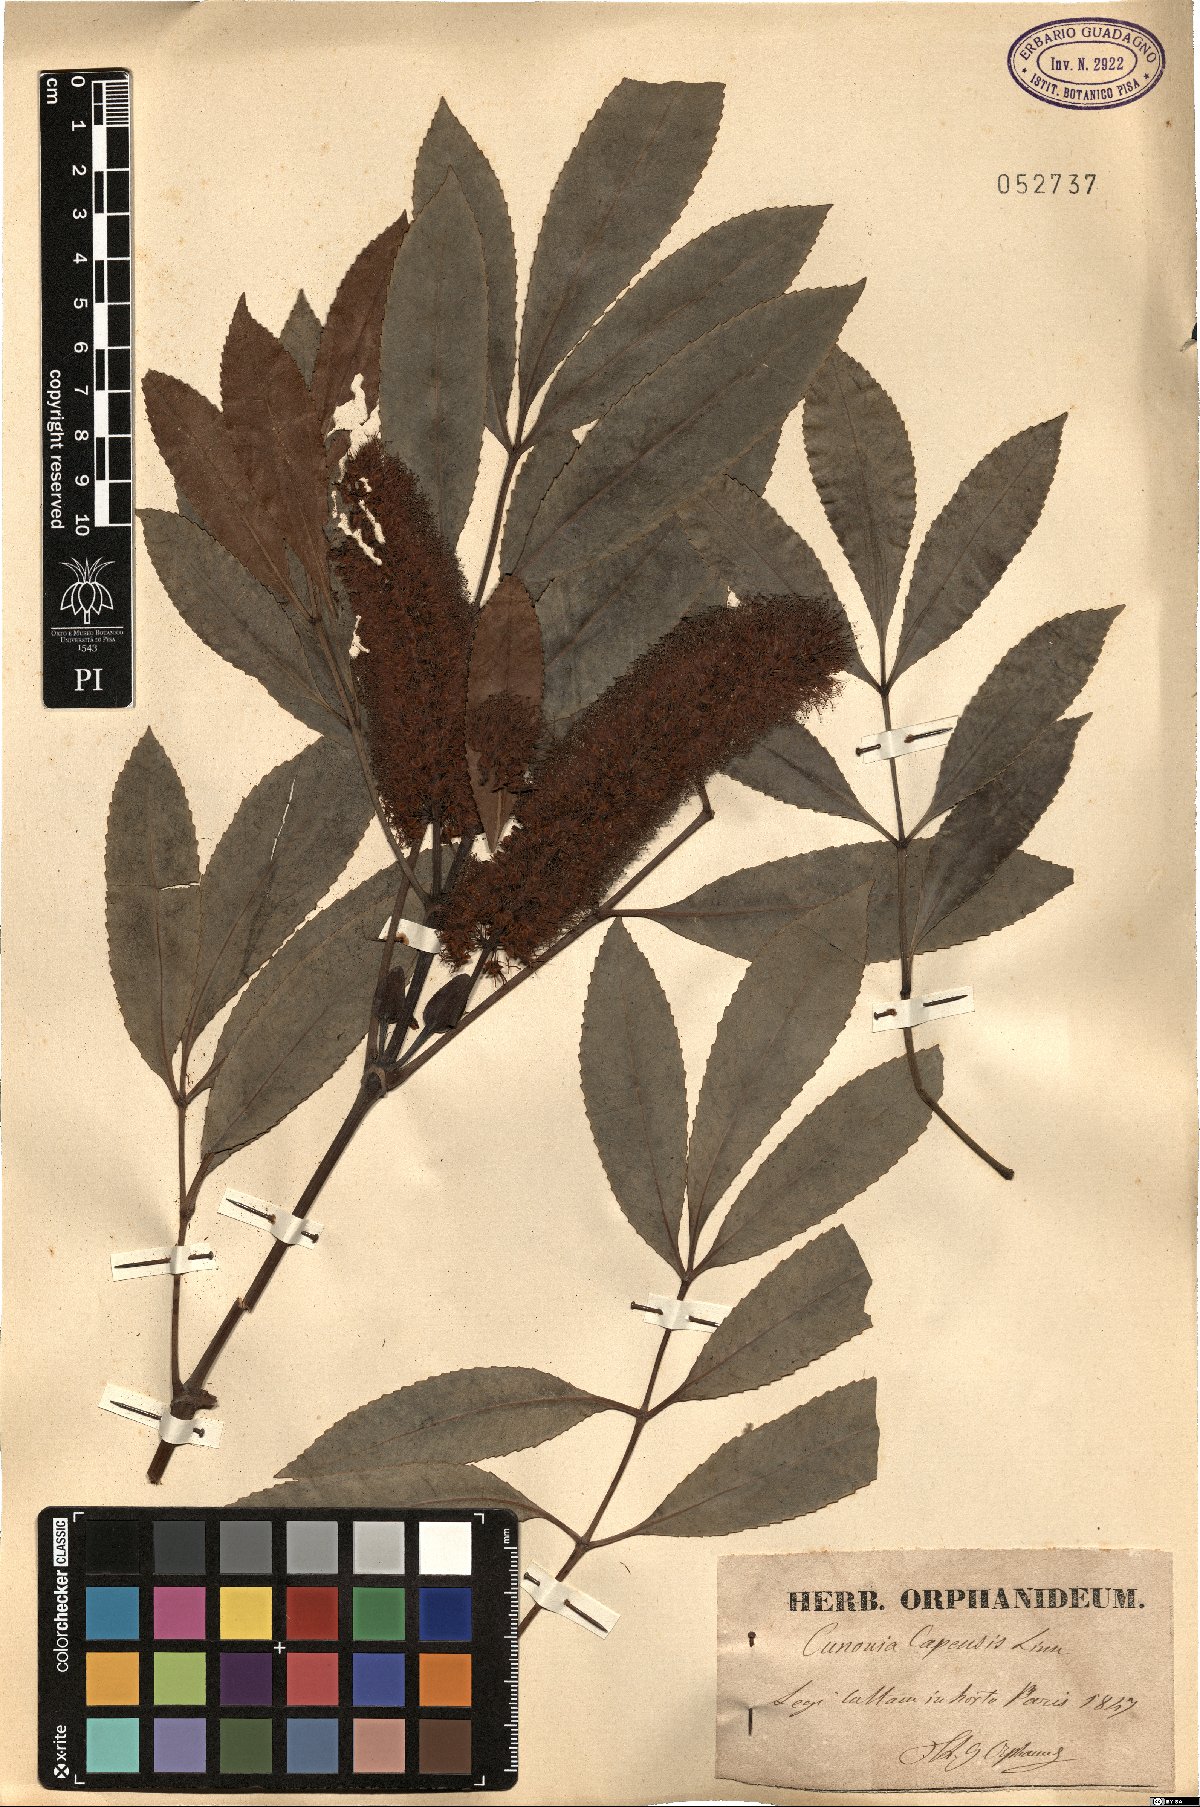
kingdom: Plantae
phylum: Tracheophyta
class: Magnoliopsida
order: Oxalidales
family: Cunoniaceae
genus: Cunonia
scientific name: Cunonia capensis
